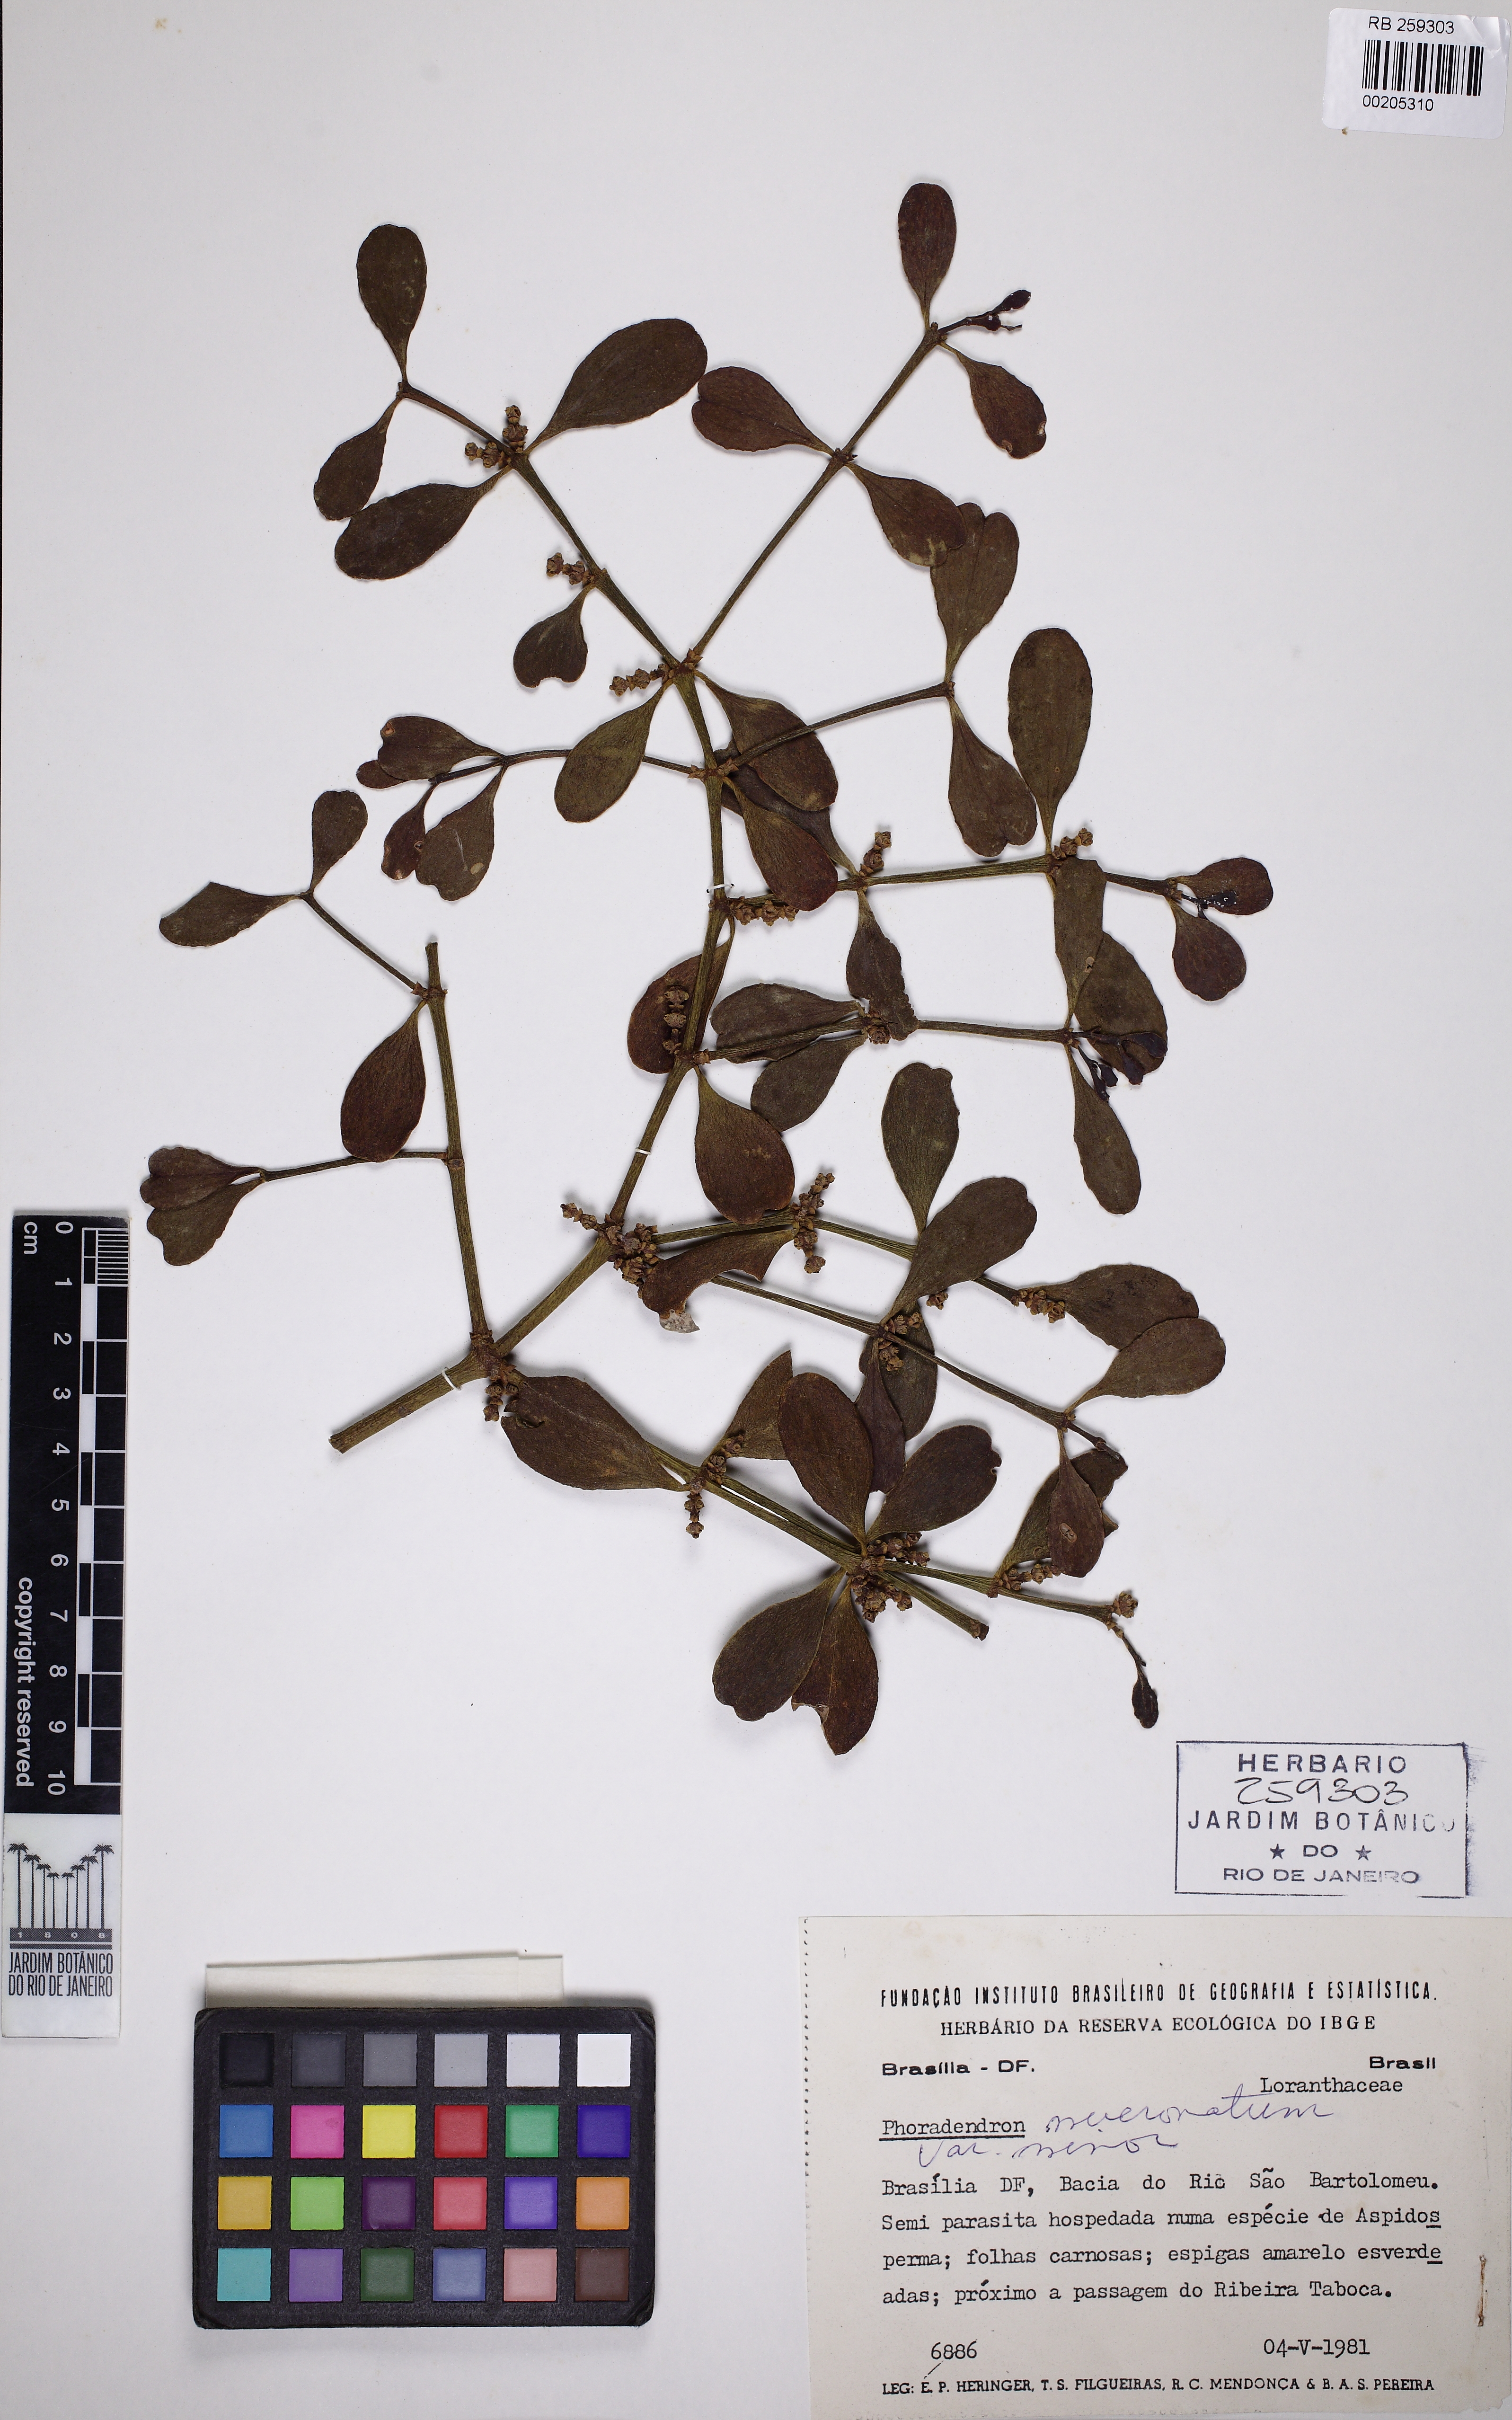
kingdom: Plantae
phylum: Tracheophyta
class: Magnoliopsida
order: Santalales
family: Viscaceae
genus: Phoradendron
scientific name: Phoradendron mucronatum
